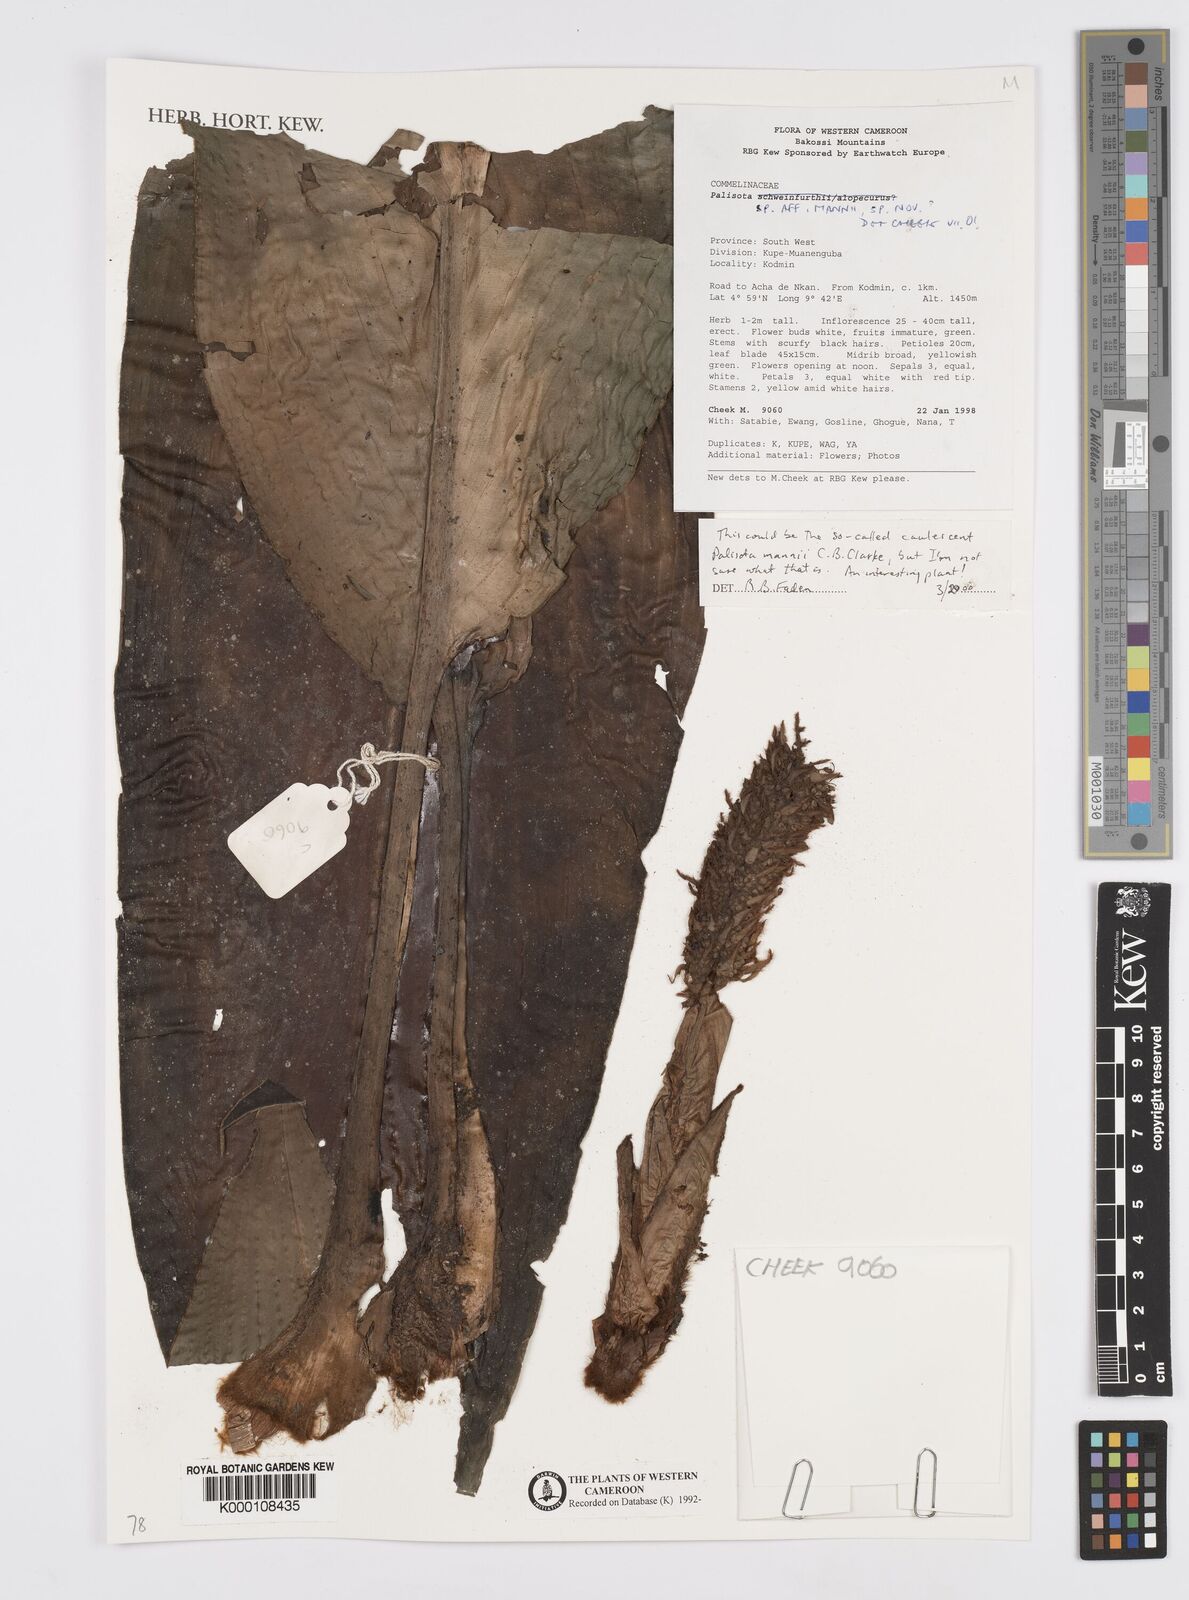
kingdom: Plantae
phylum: Tracheophyta
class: Liliopsida
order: Commelinales
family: Commelinaceae
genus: Palisota
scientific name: Palisota
